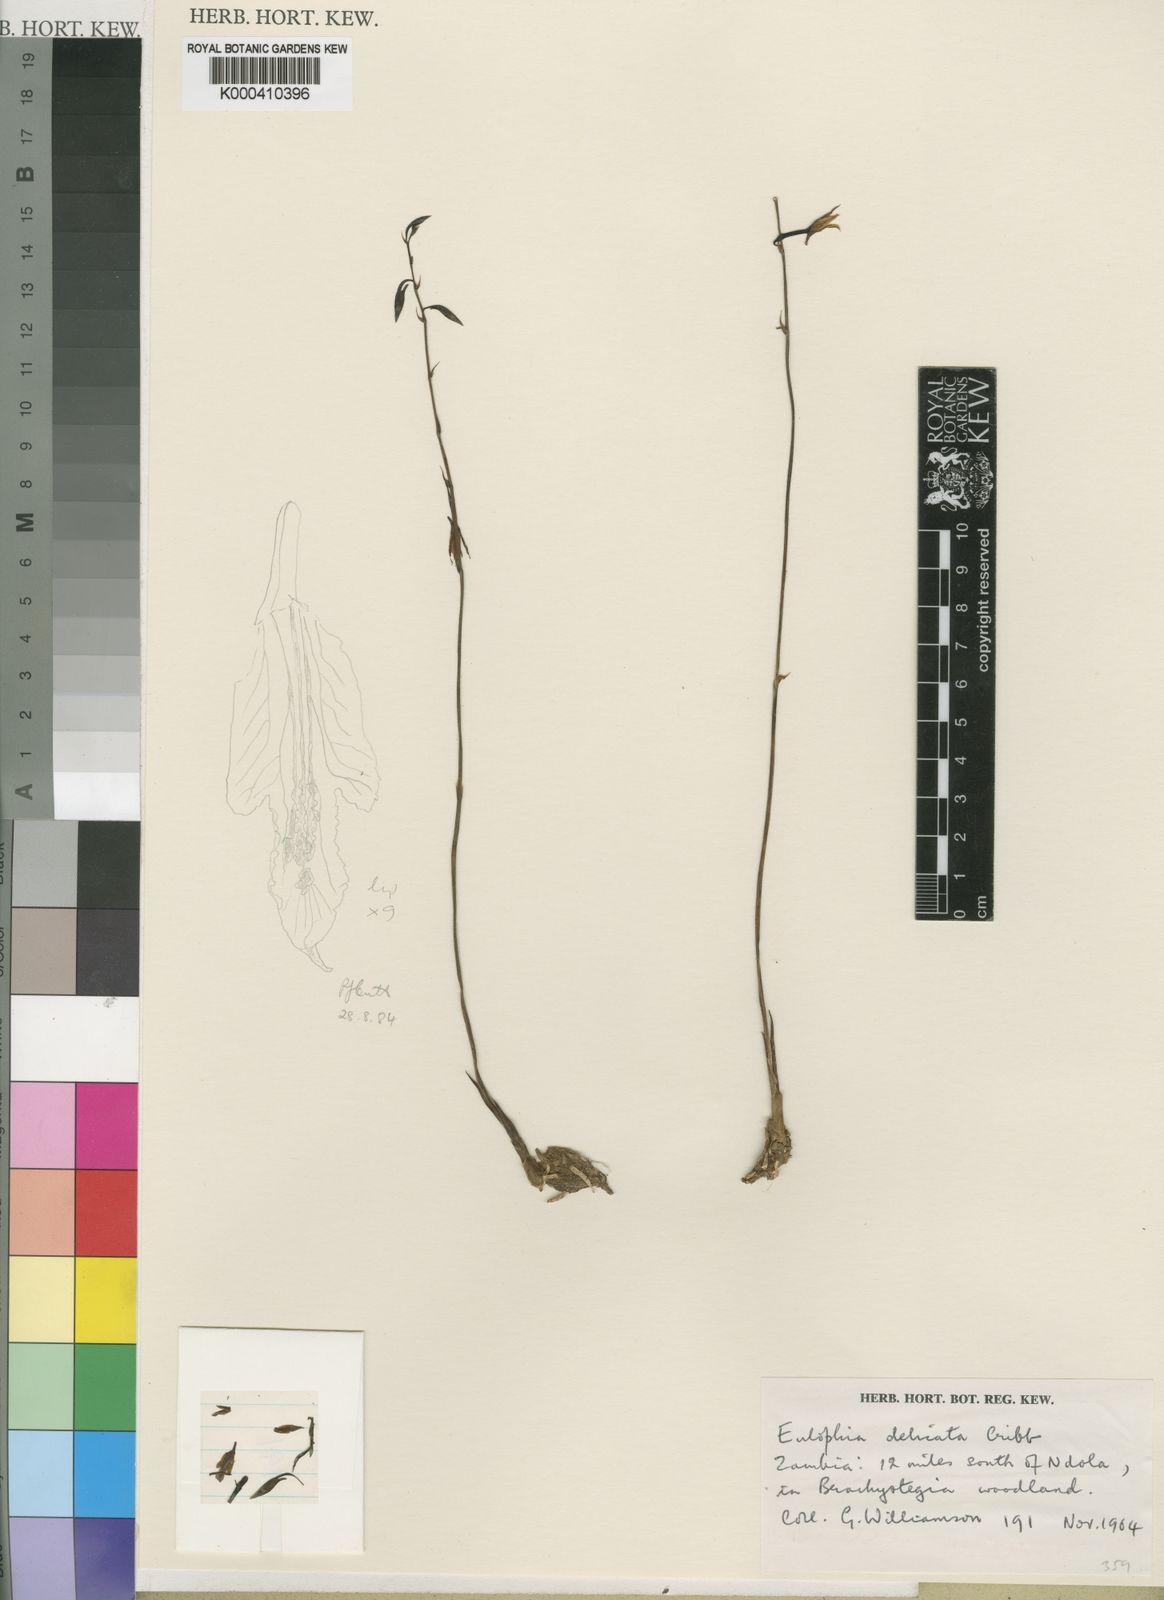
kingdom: Plantae
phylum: Tracheophyta
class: Liliopsida
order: Asparagales
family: Orchidaceae
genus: Eulophia
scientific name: Eulophia acutilabra
